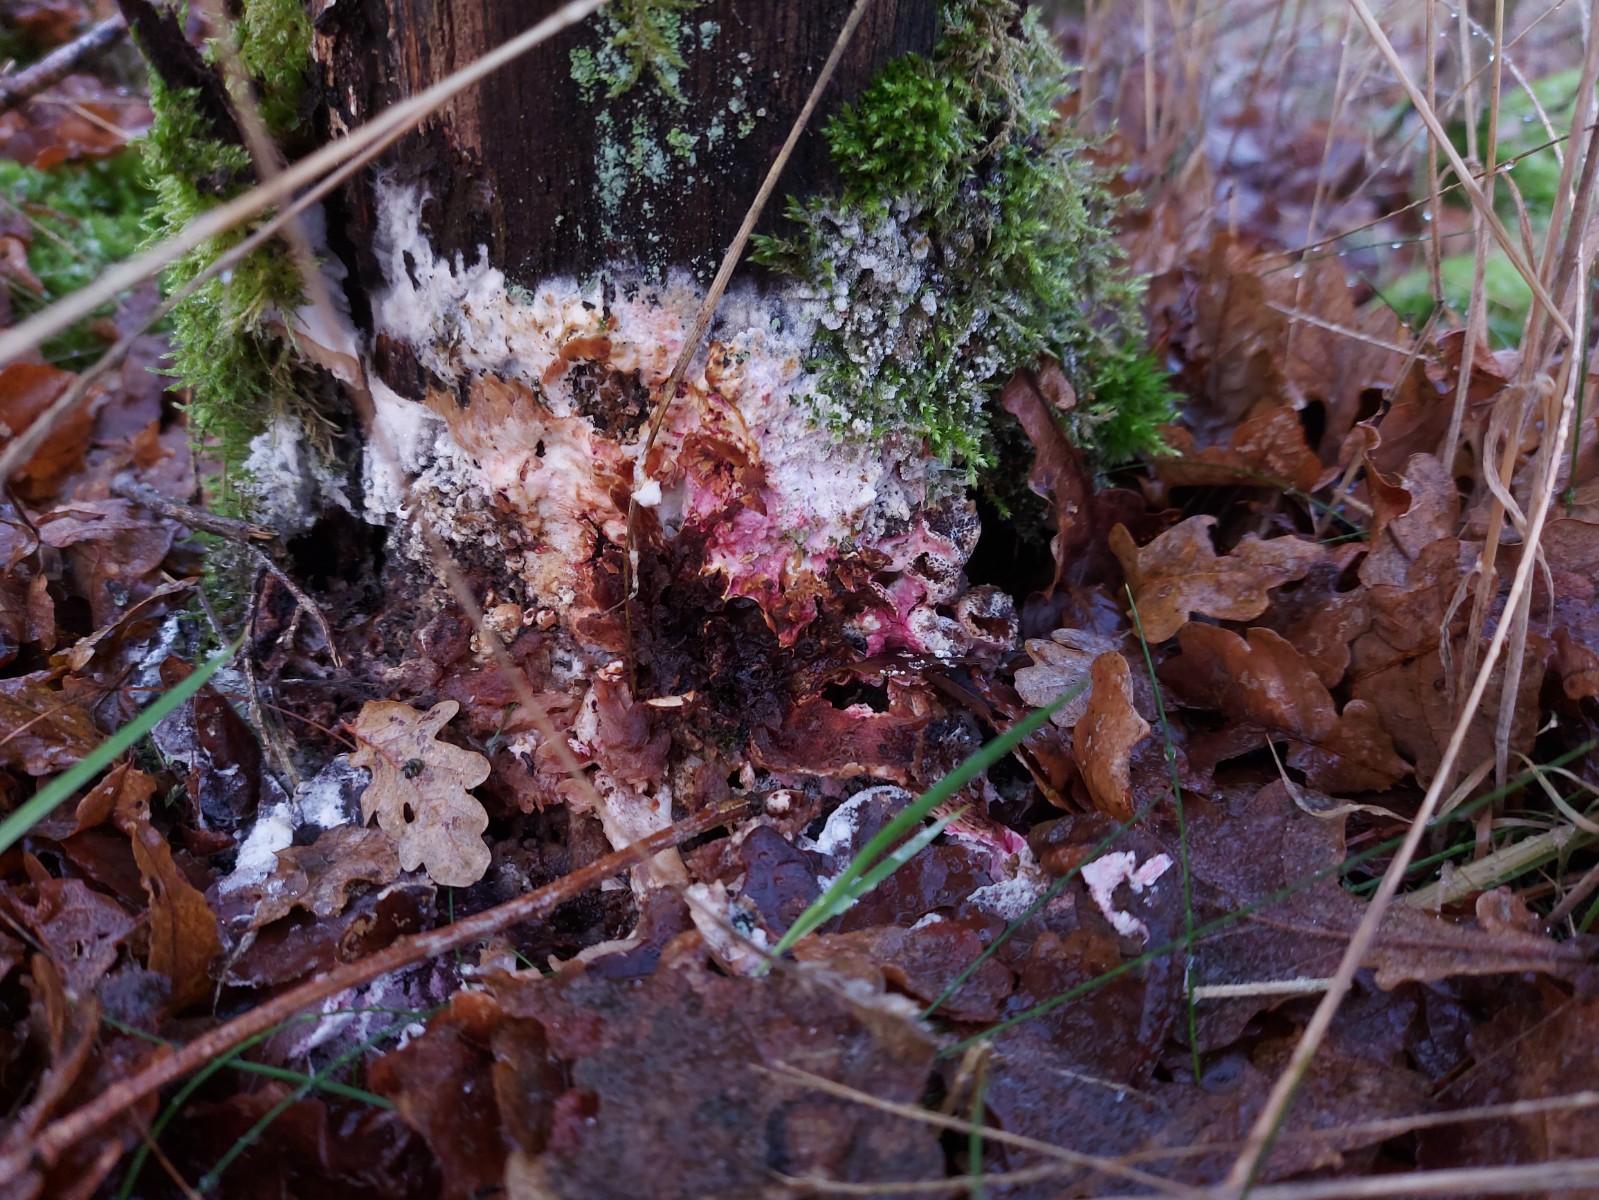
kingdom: Fungi
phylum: Ascomycota
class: Sordariomycetes
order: Hypocreales
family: Hypocreaceae
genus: Hypomyces
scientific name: Hypomyces rosellus
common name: rosa snylteskorpe
